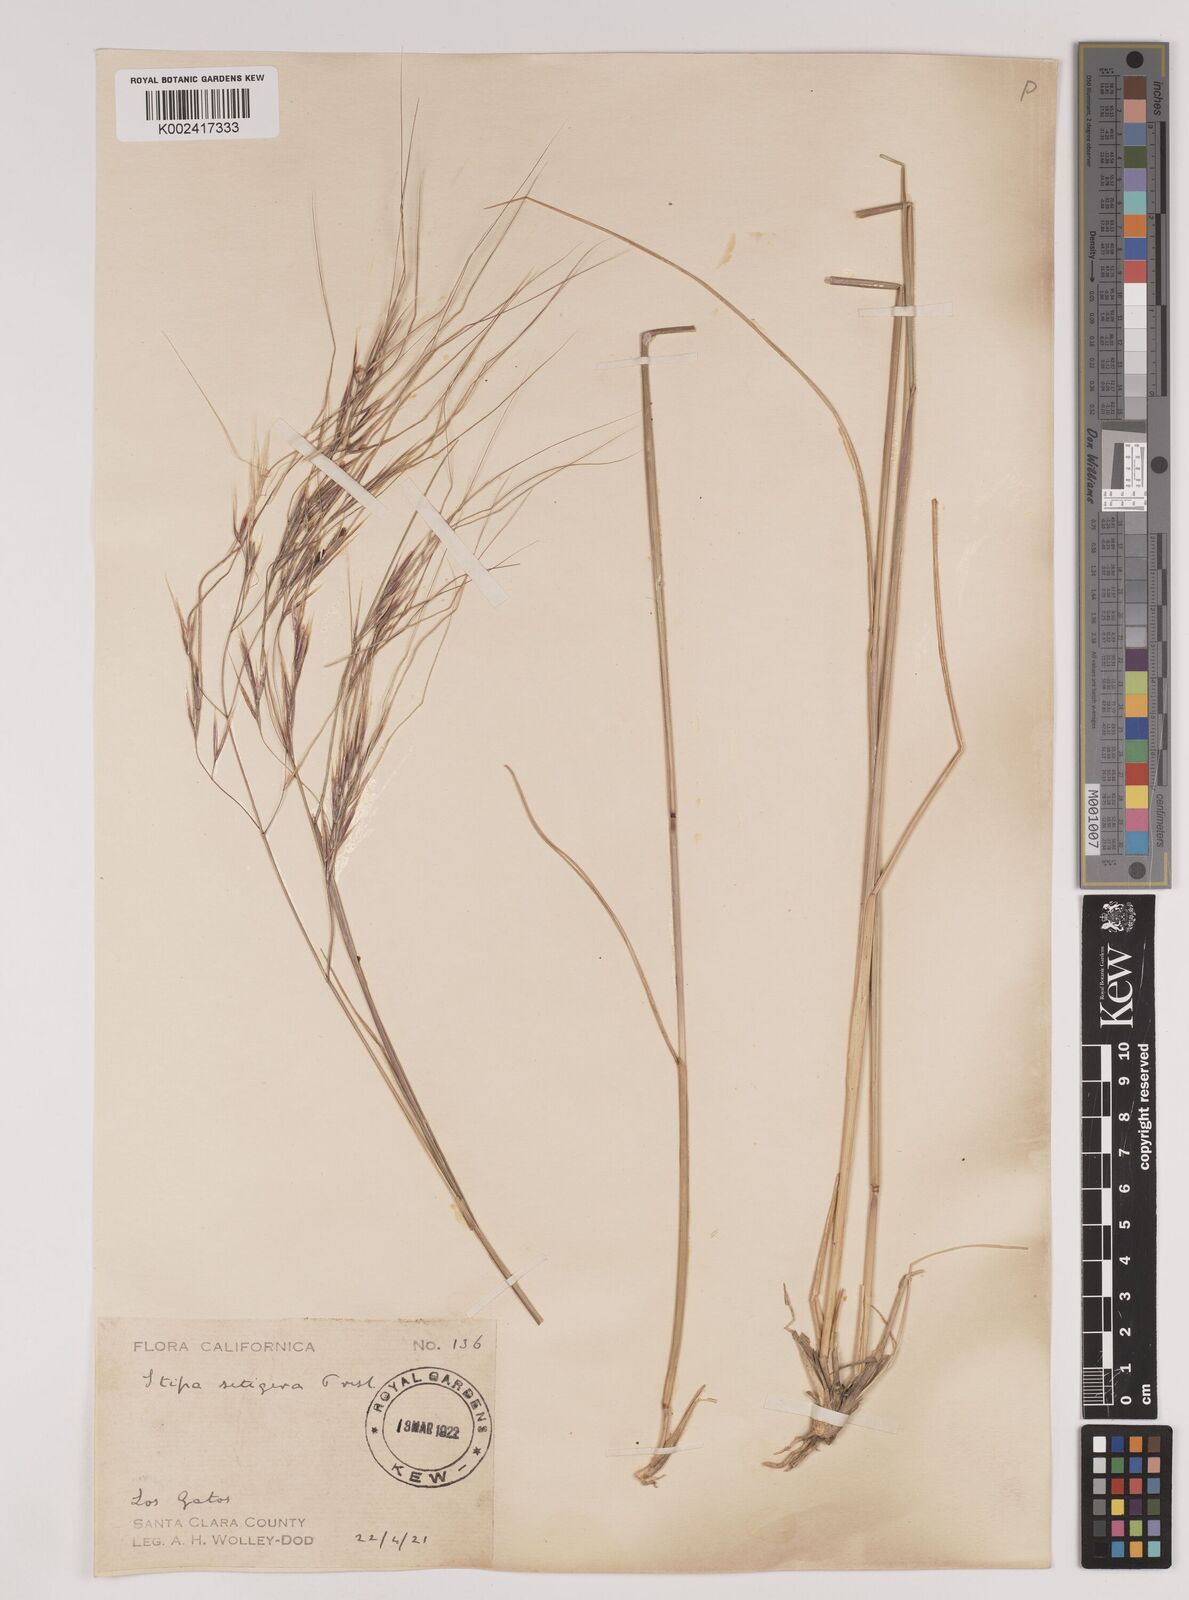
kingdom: Plantae
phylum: Tracheophyta
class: Liliopsida
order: Poales
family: Poaceae
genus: Nassella
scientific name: Nassella pulchra
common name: Purple needlegrass
